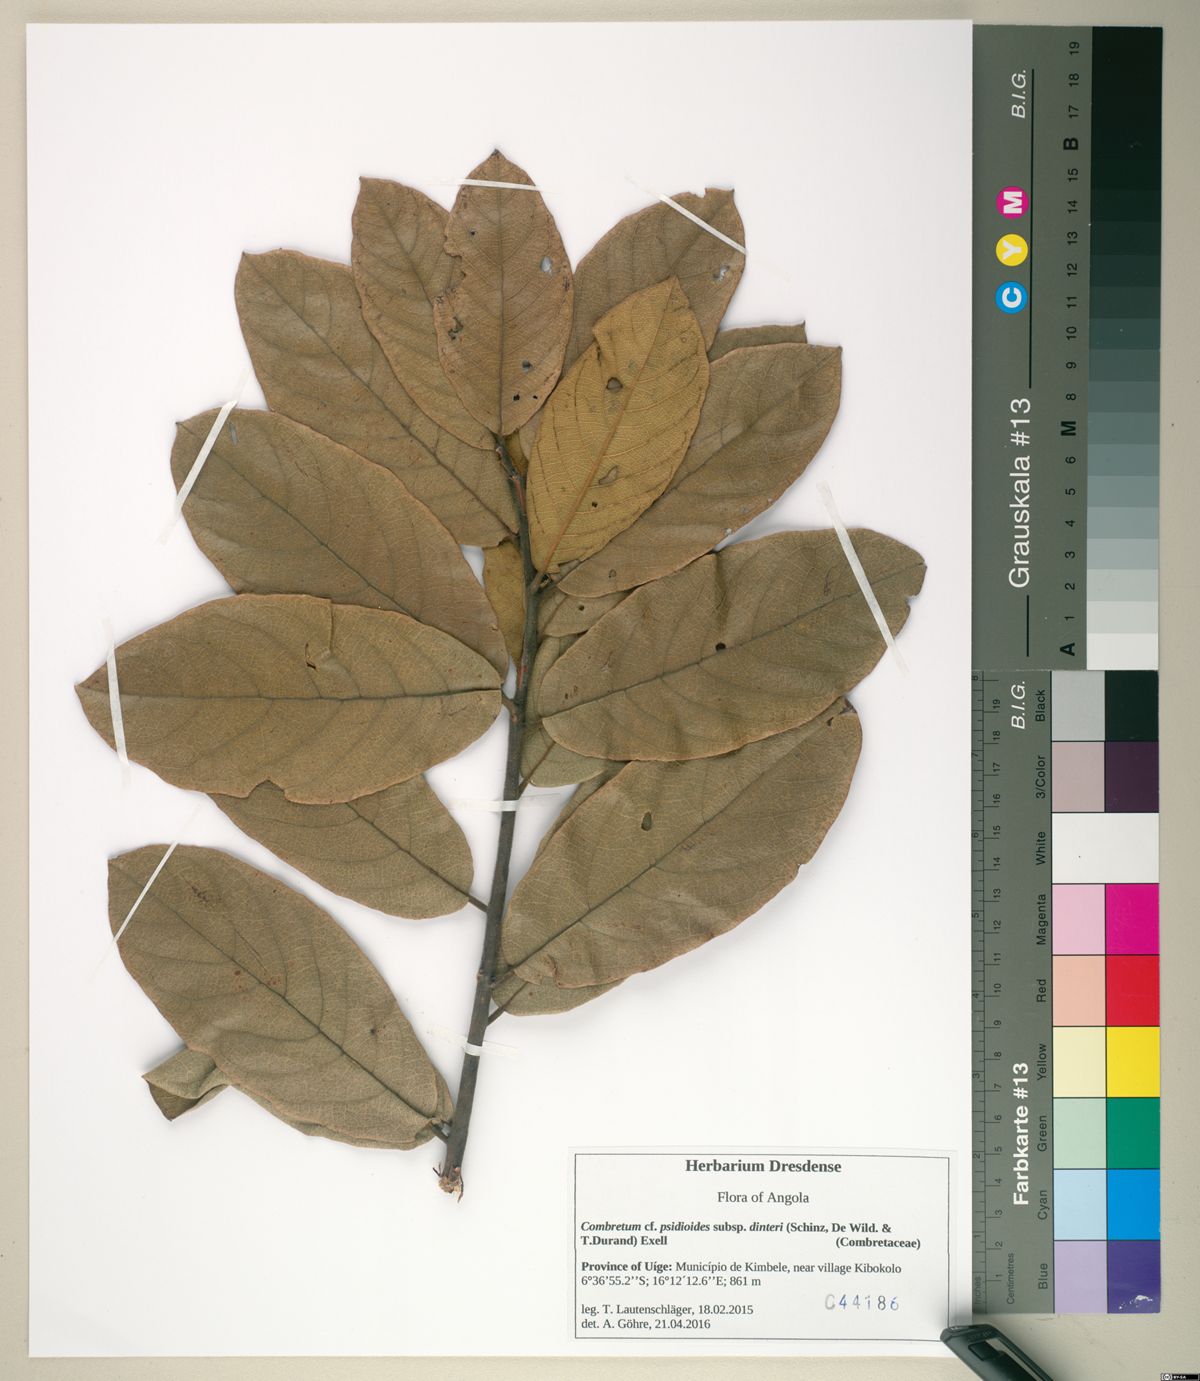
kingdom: Plantae
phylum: Tracheophyta
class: Magnoliopsida
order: Myrtales
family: Combretaceae
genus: Combretum
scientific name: Combretum psidioides
